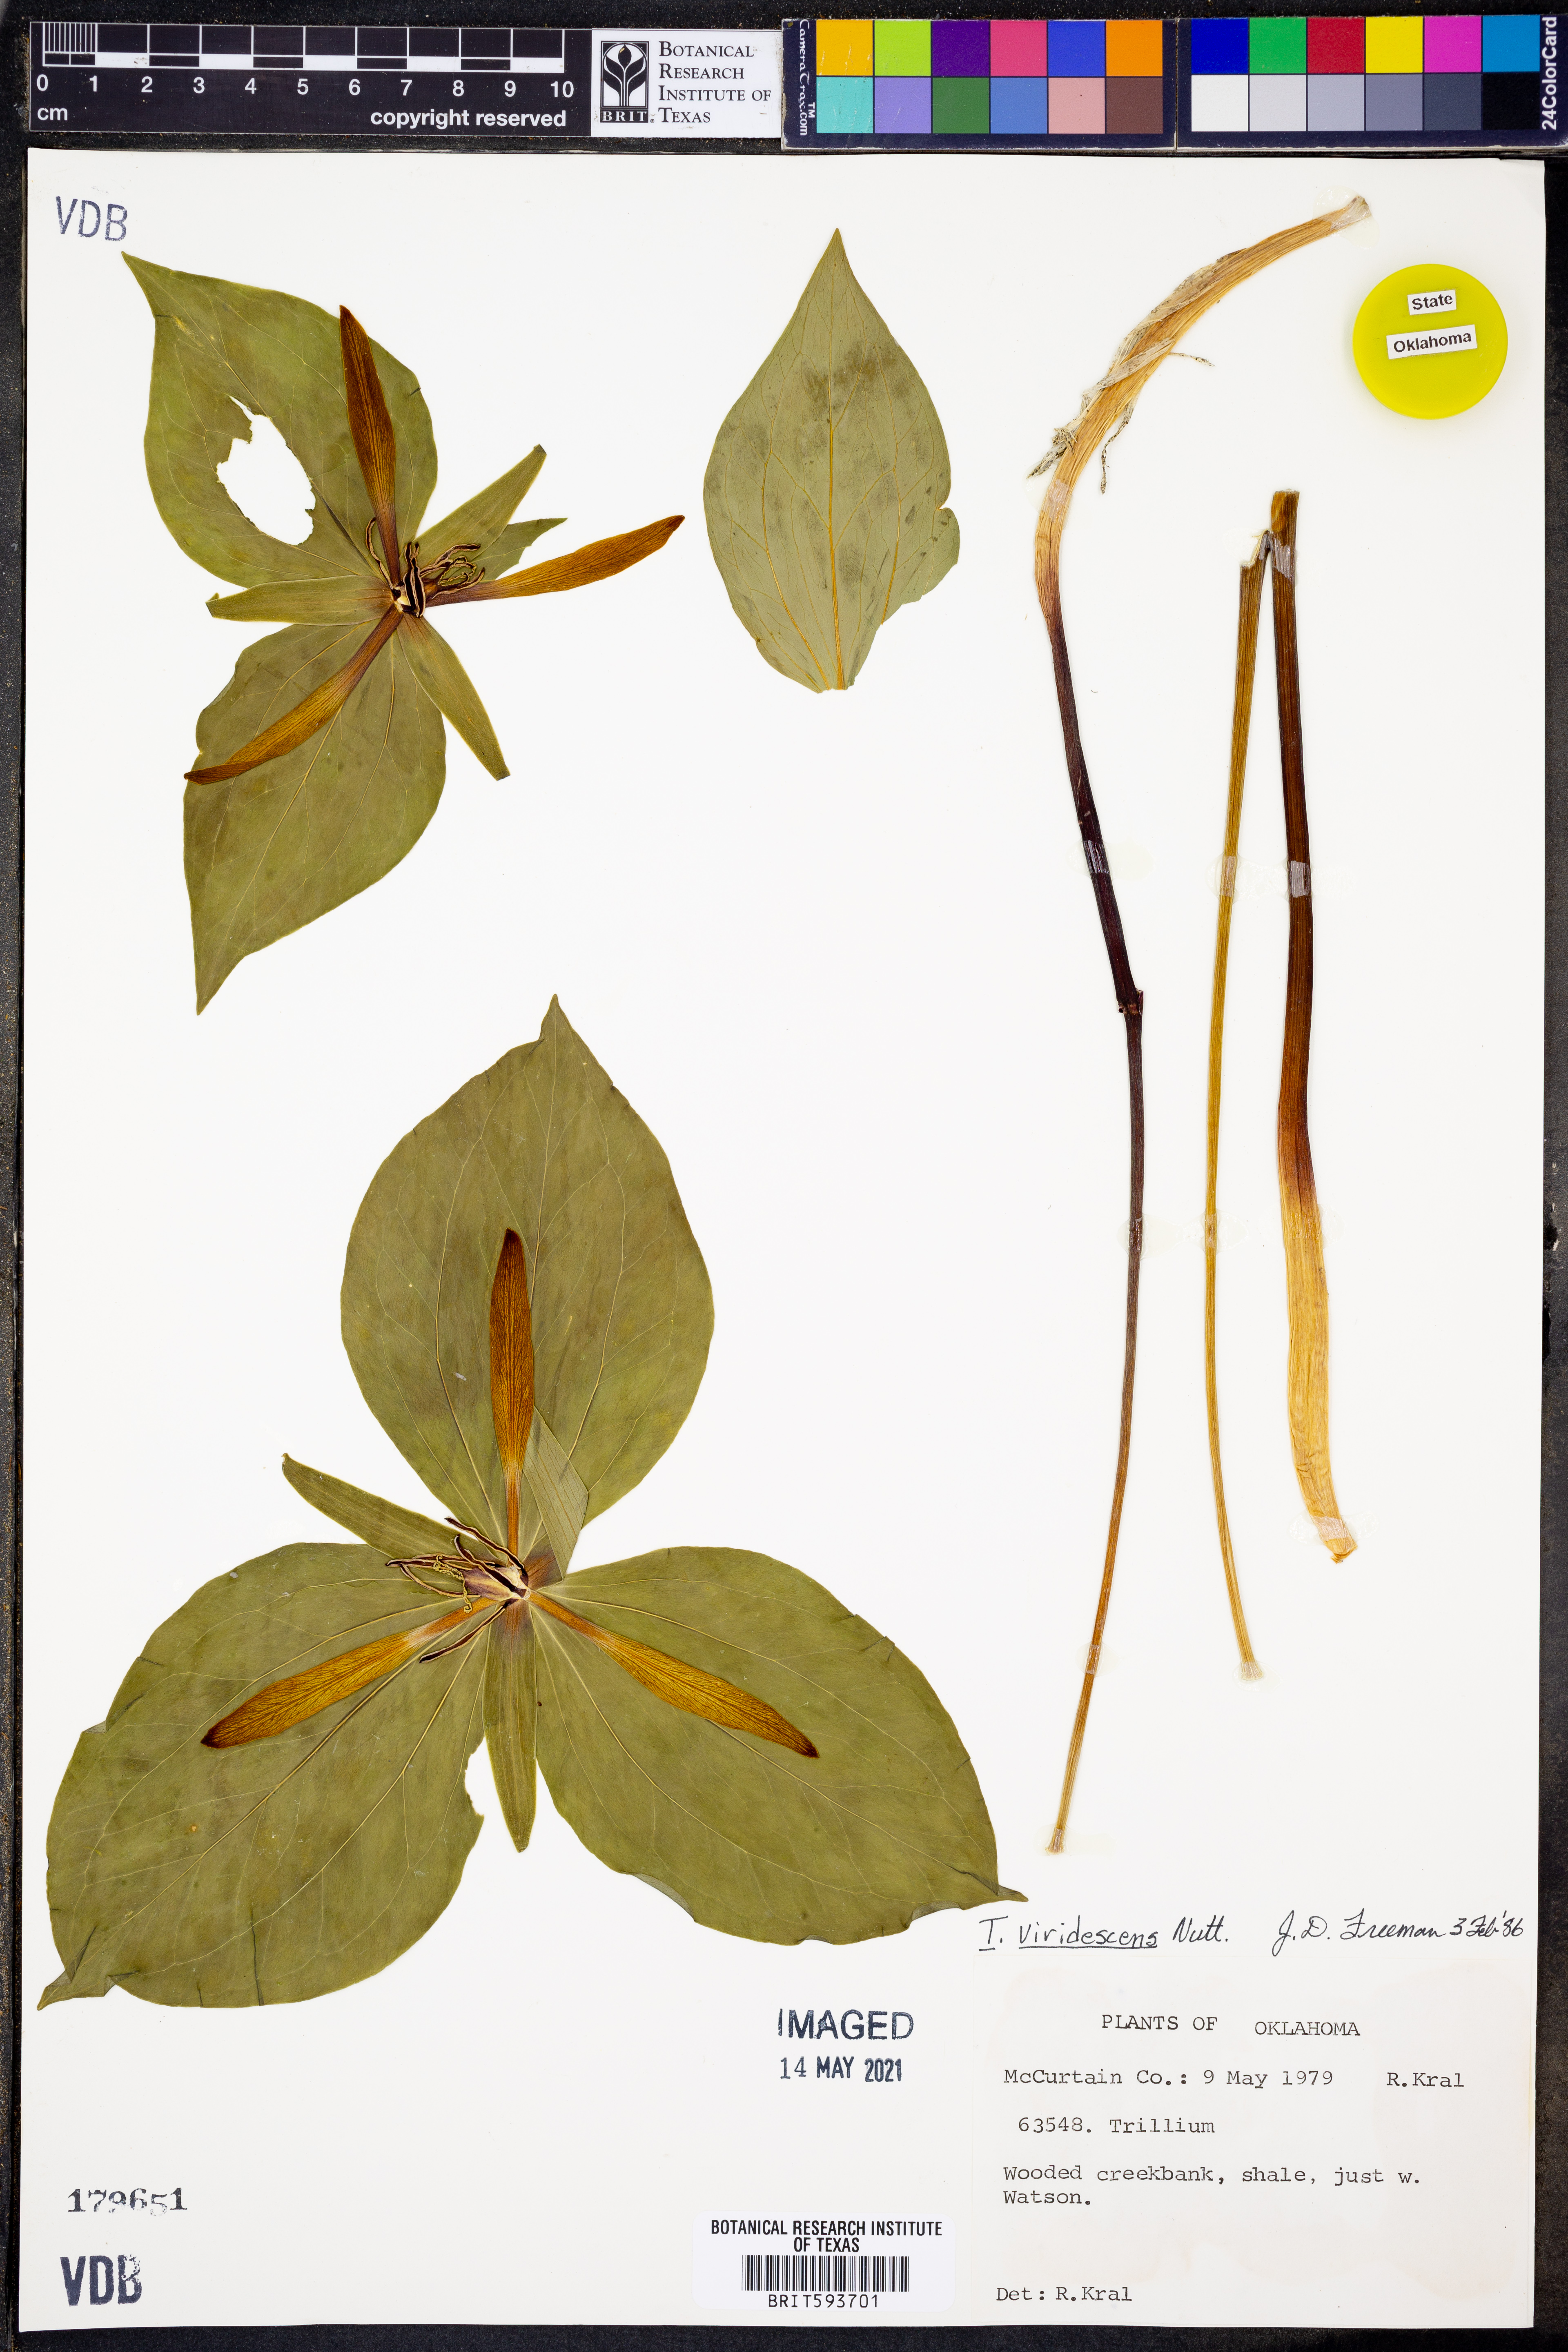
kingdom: Plantae
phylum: Tracheophyta
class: Liliopsida
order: Liliales
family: Melanthiaceae
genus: Trillium
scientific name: Trillium viridescens
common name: Ozark green trillium
